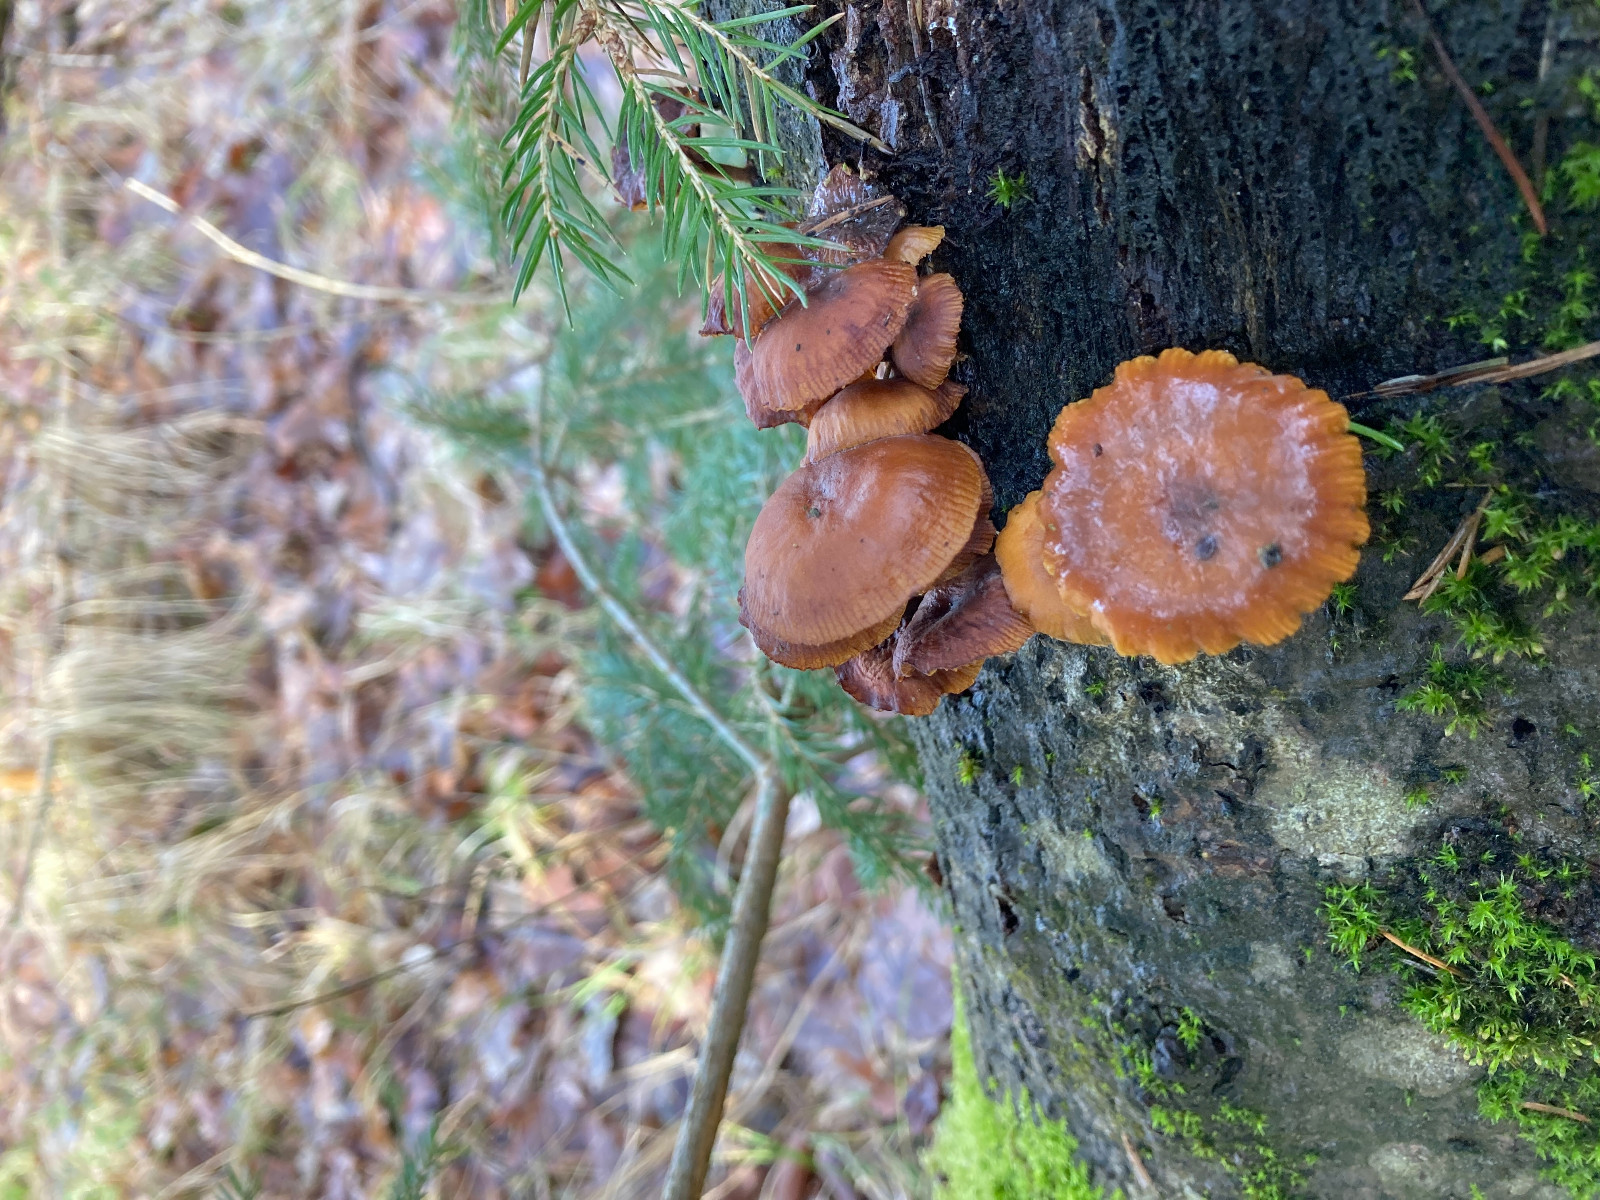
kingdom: Fungi
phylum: Basidiomycota
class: Agaricomycetes
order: Agaricales
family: Physalacriaceae
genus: Flammulina
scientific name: Flammulina
